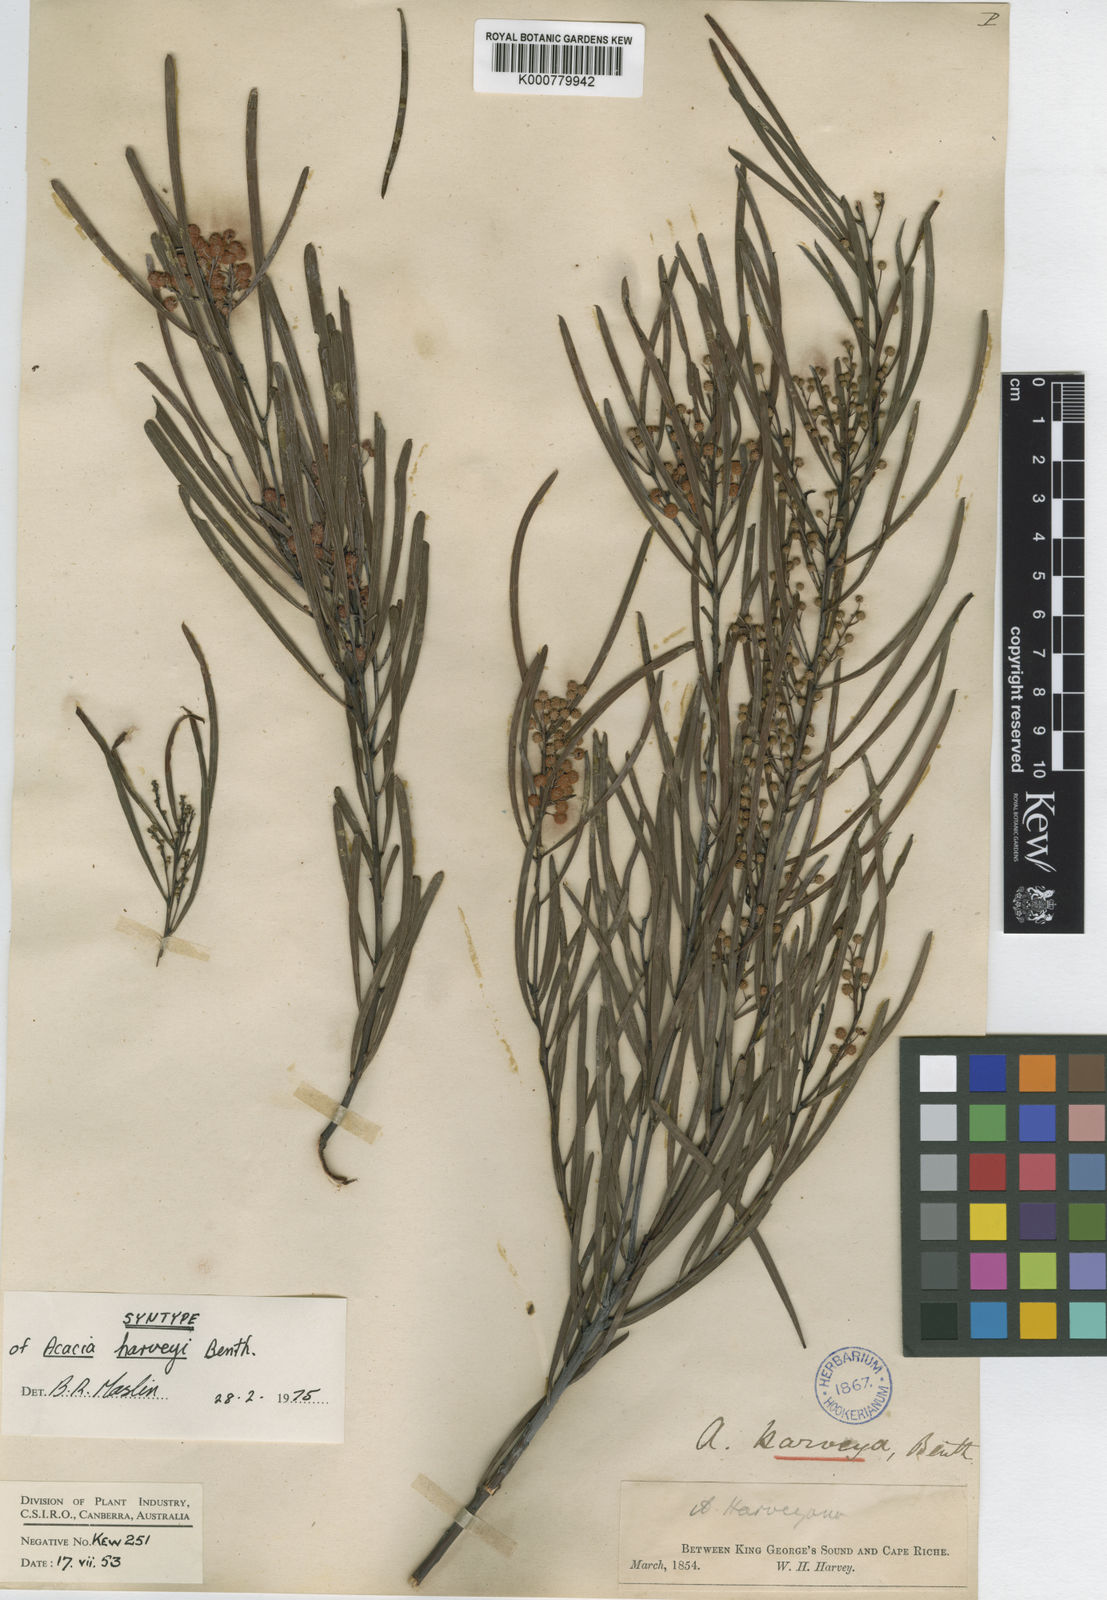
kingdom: Plantae
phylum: Tracheophyta
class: Magnoliopsida
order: Fabales
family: Fabaceae
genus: Acacia
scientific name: Acacia harveyi
